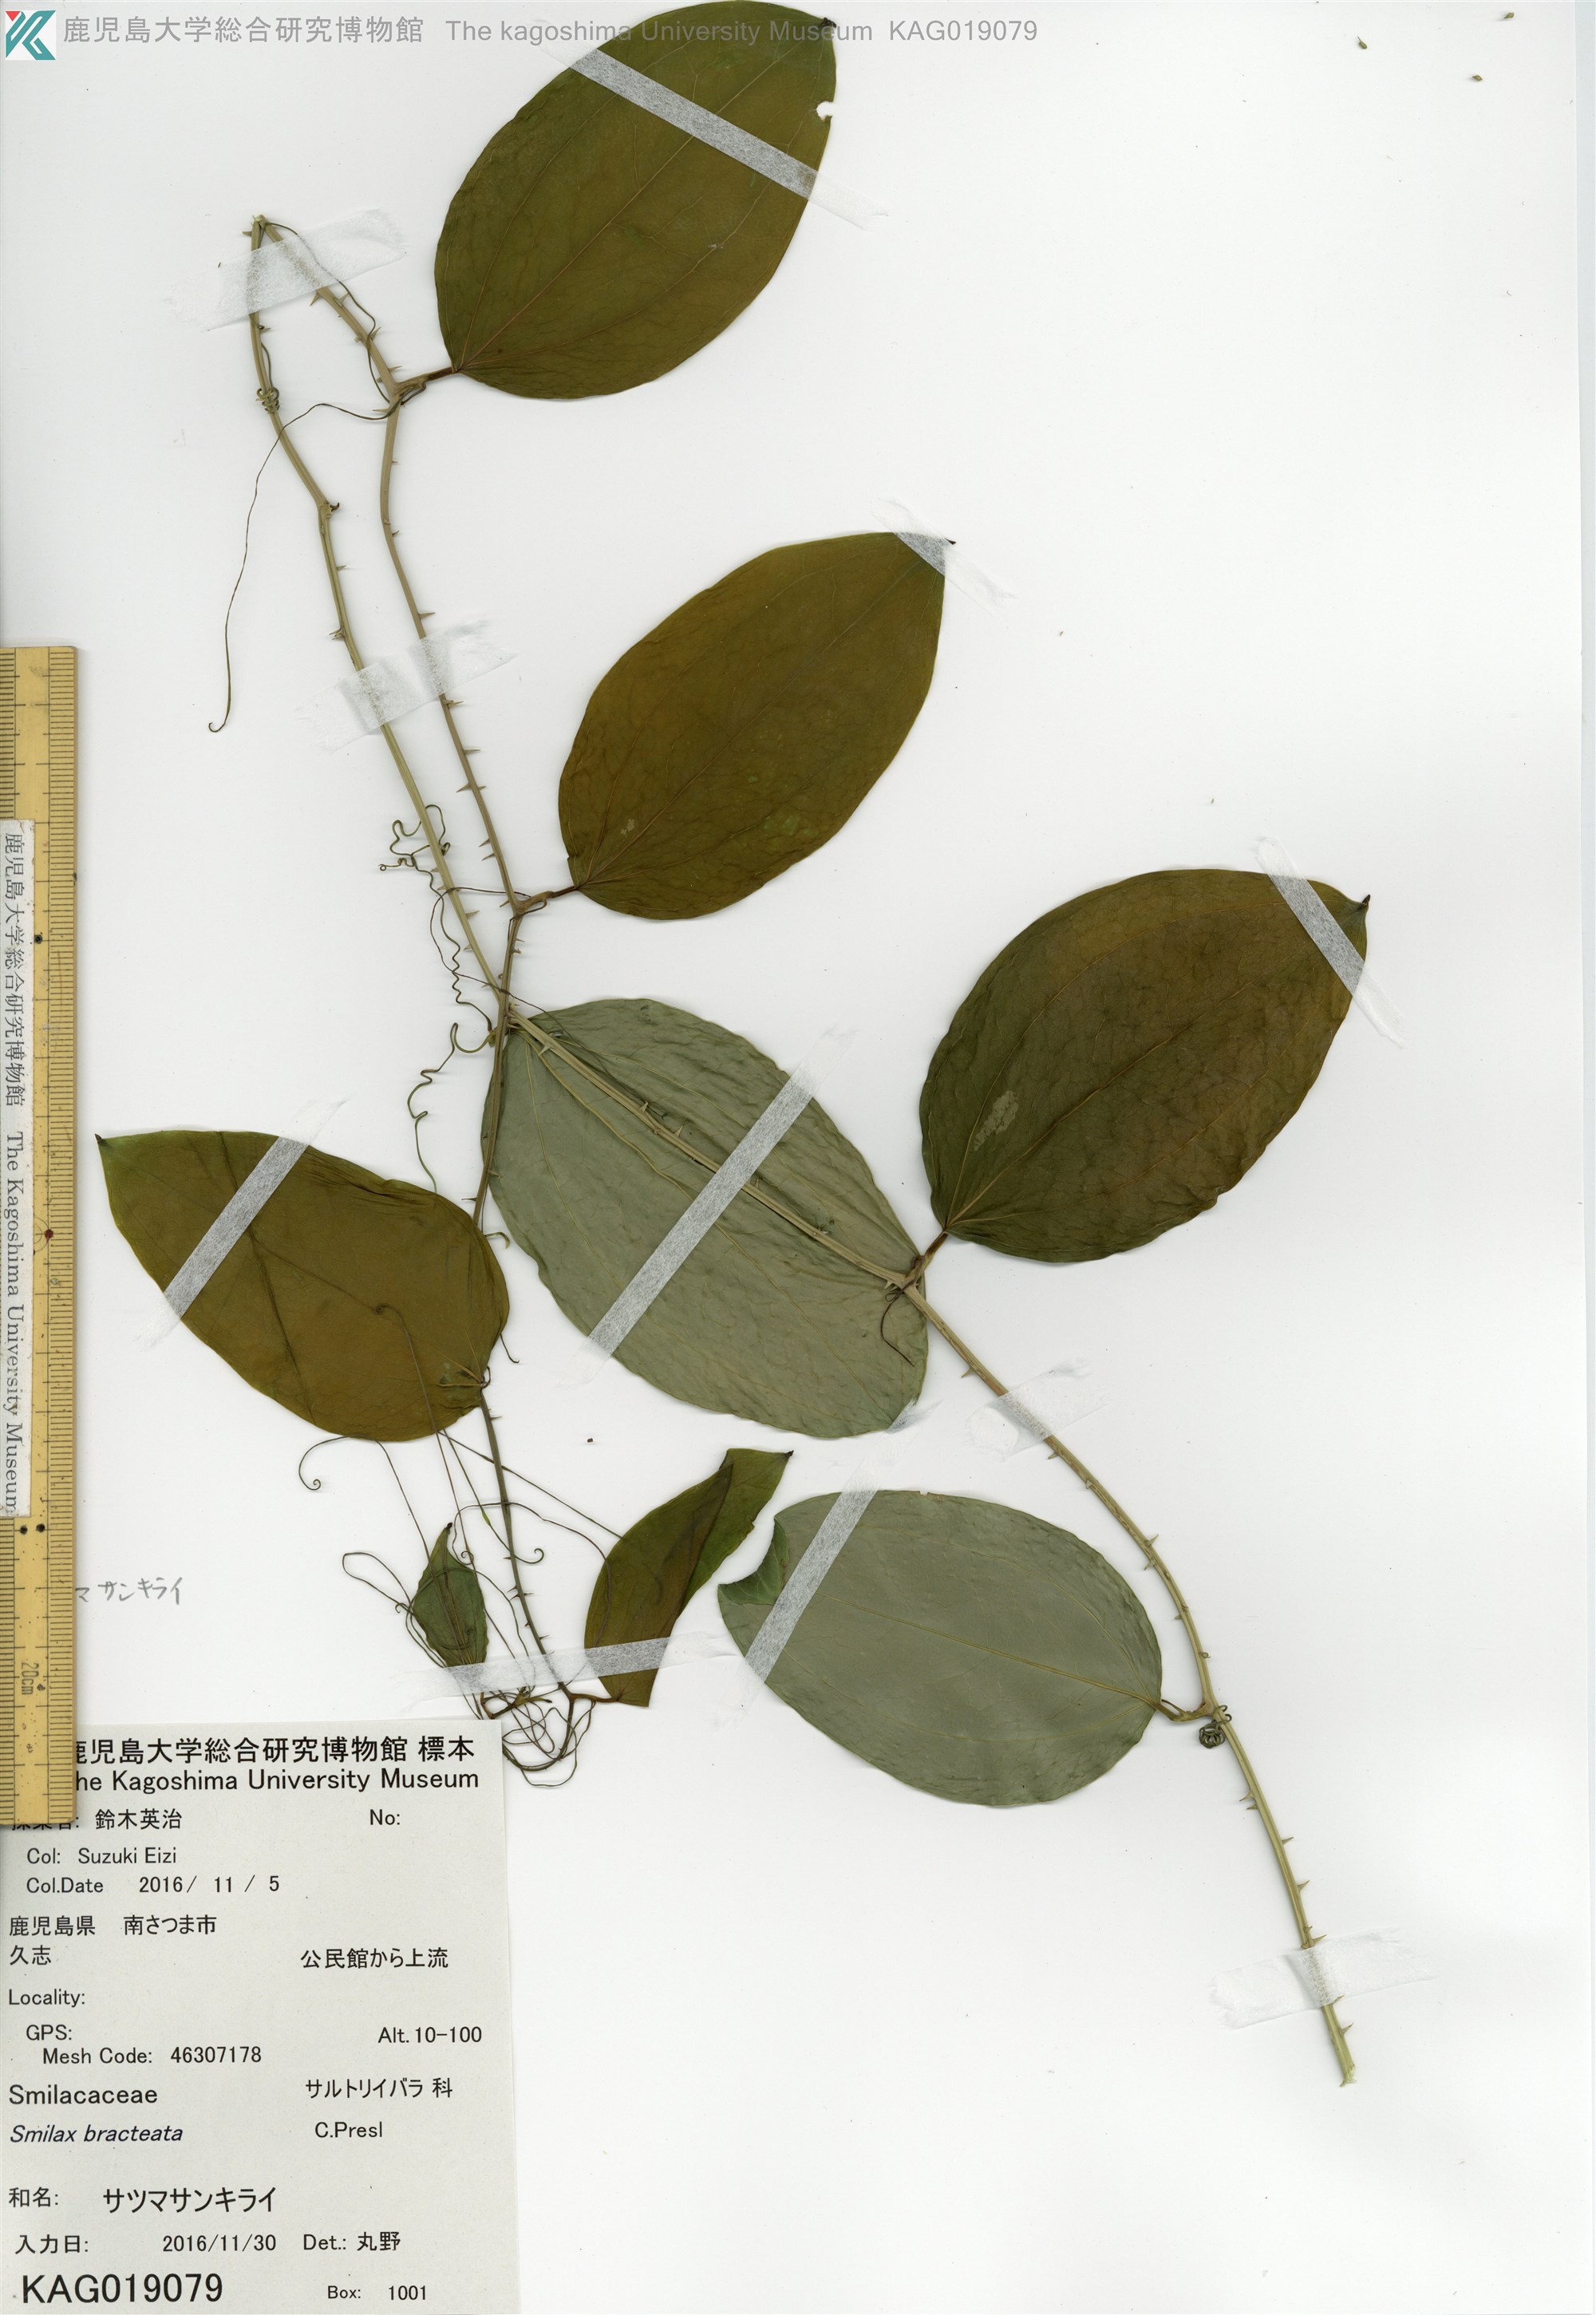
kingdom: Plantae
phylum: Tracheophyta
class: Liliopsida
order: Liliales
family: Smilacaceae
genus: Smilax
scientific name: Smilax bracteata
